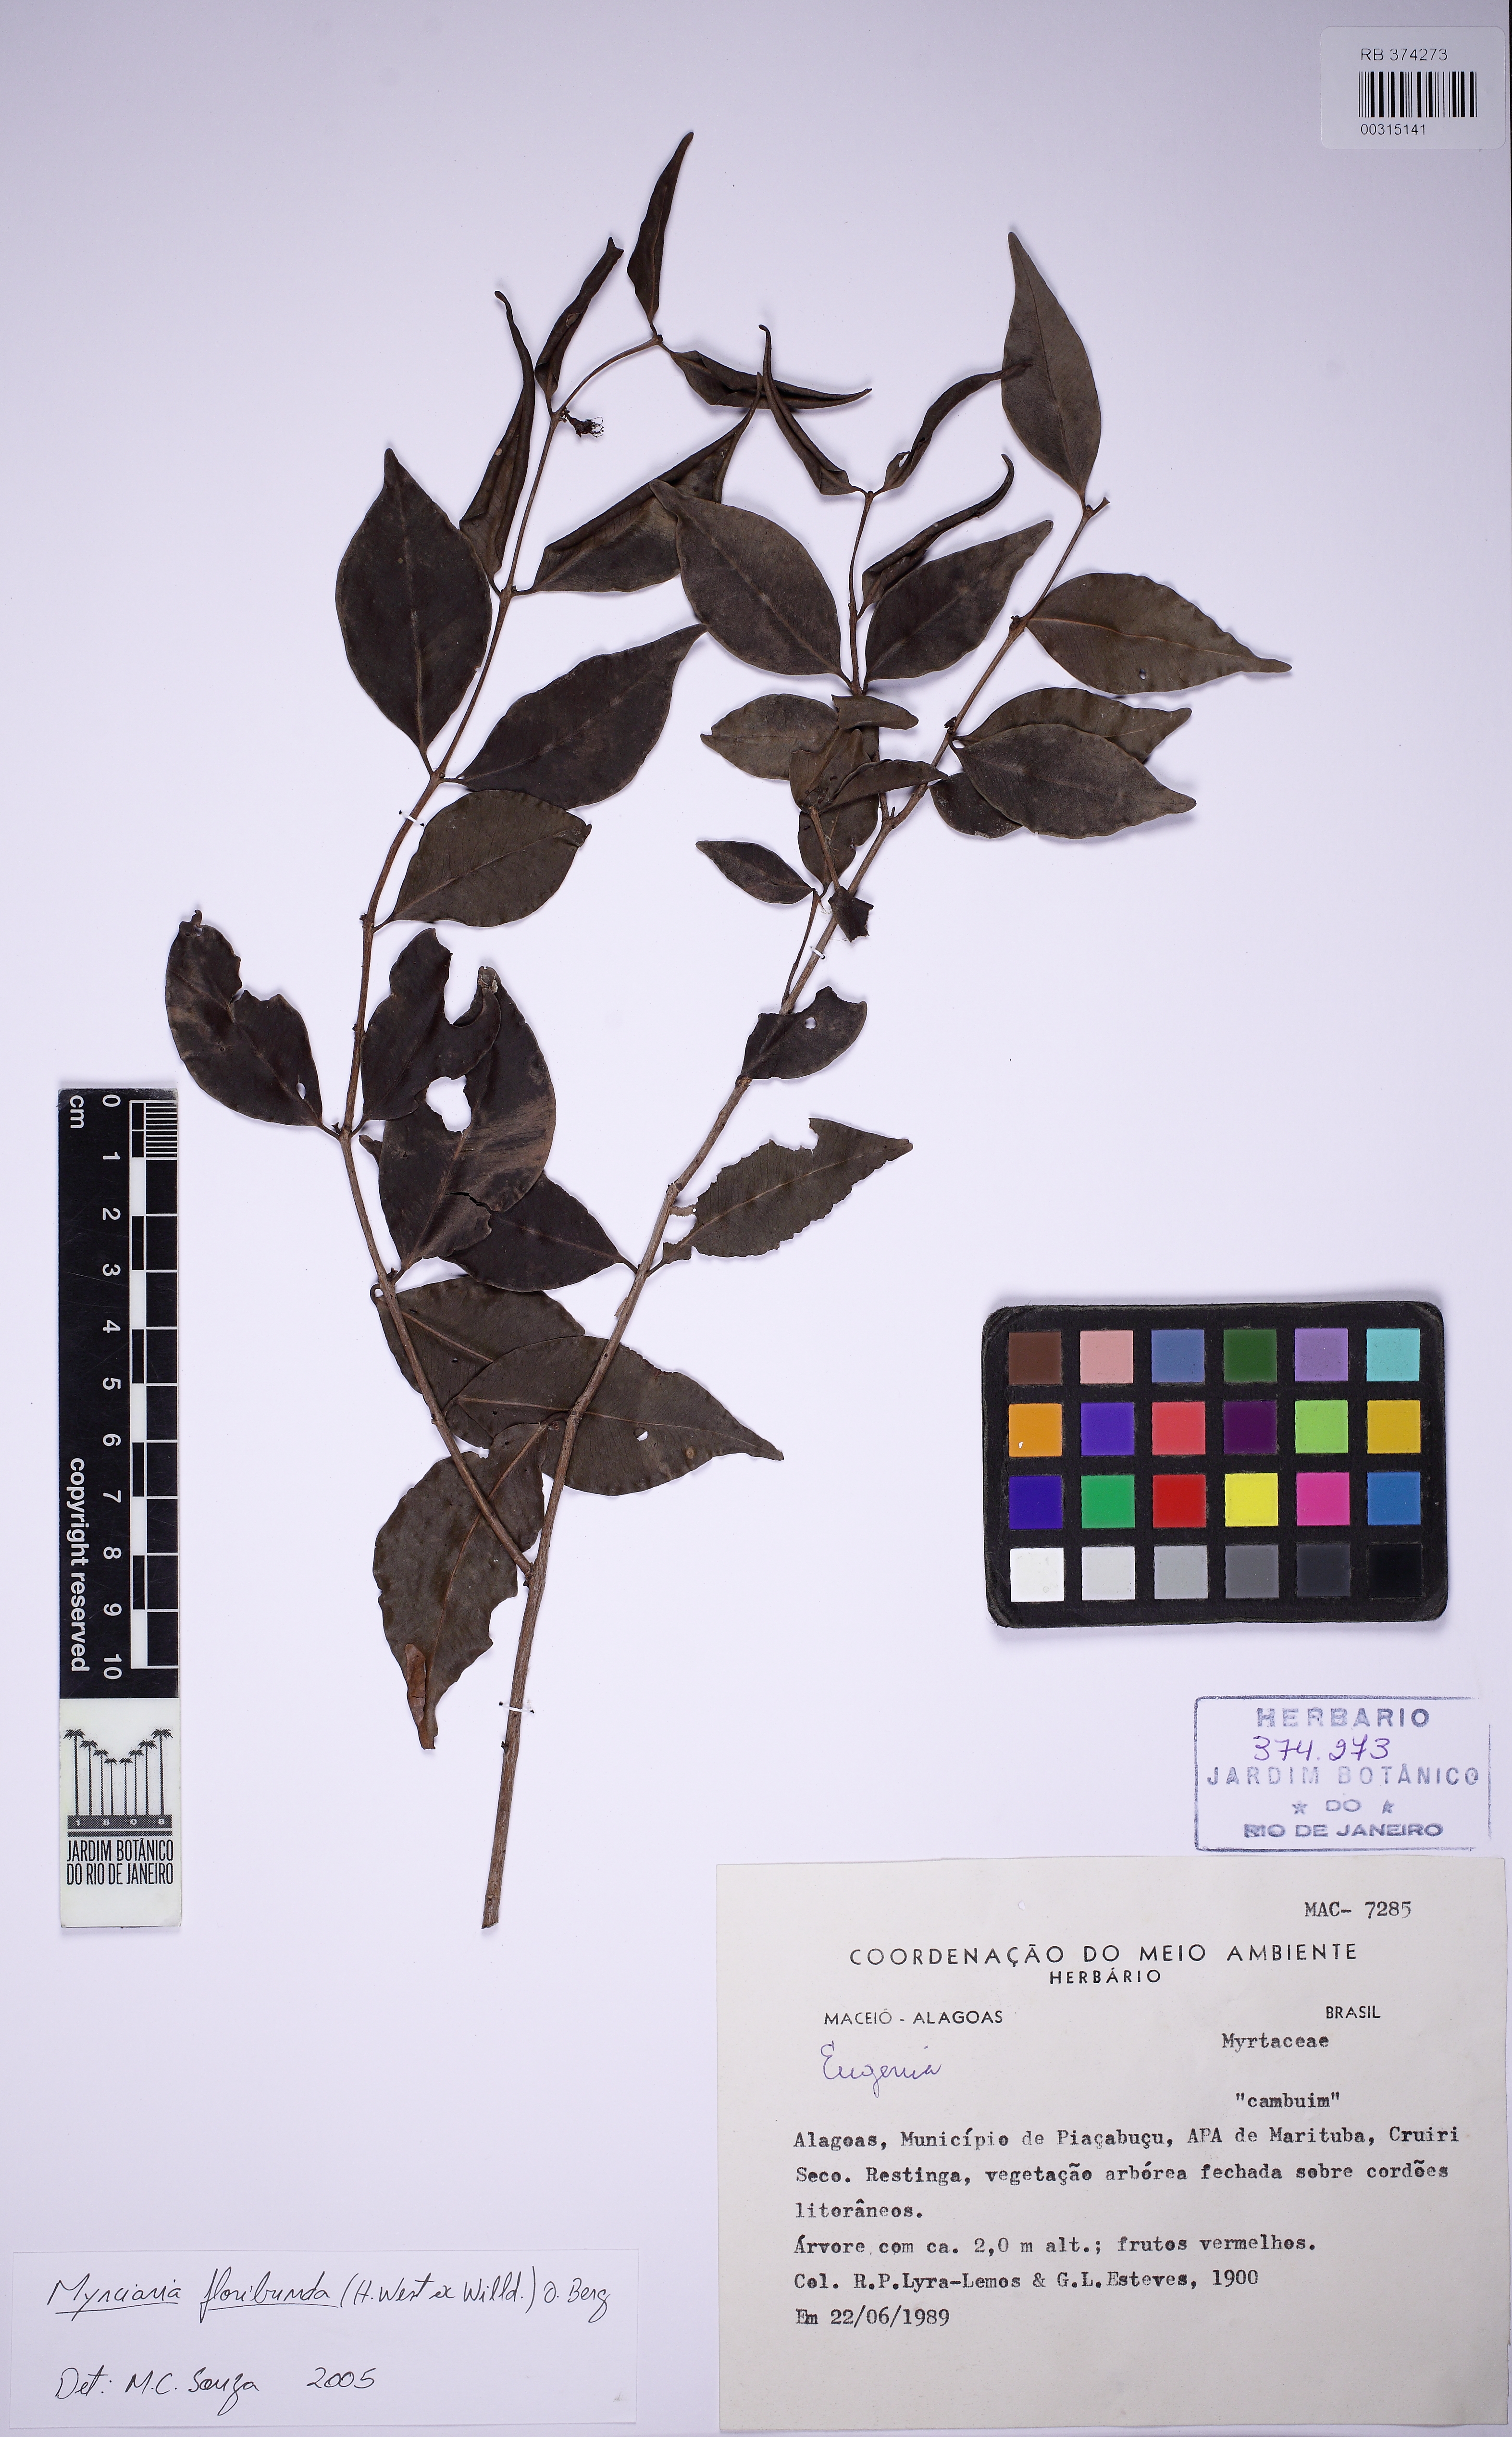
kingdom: Plantae
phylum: Tracheophyta
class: Magnoliopsida
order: Myrtales
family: Myrtaceae
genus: Myrciaria
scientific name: Myrciaria floribunda
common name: Guavaberry
